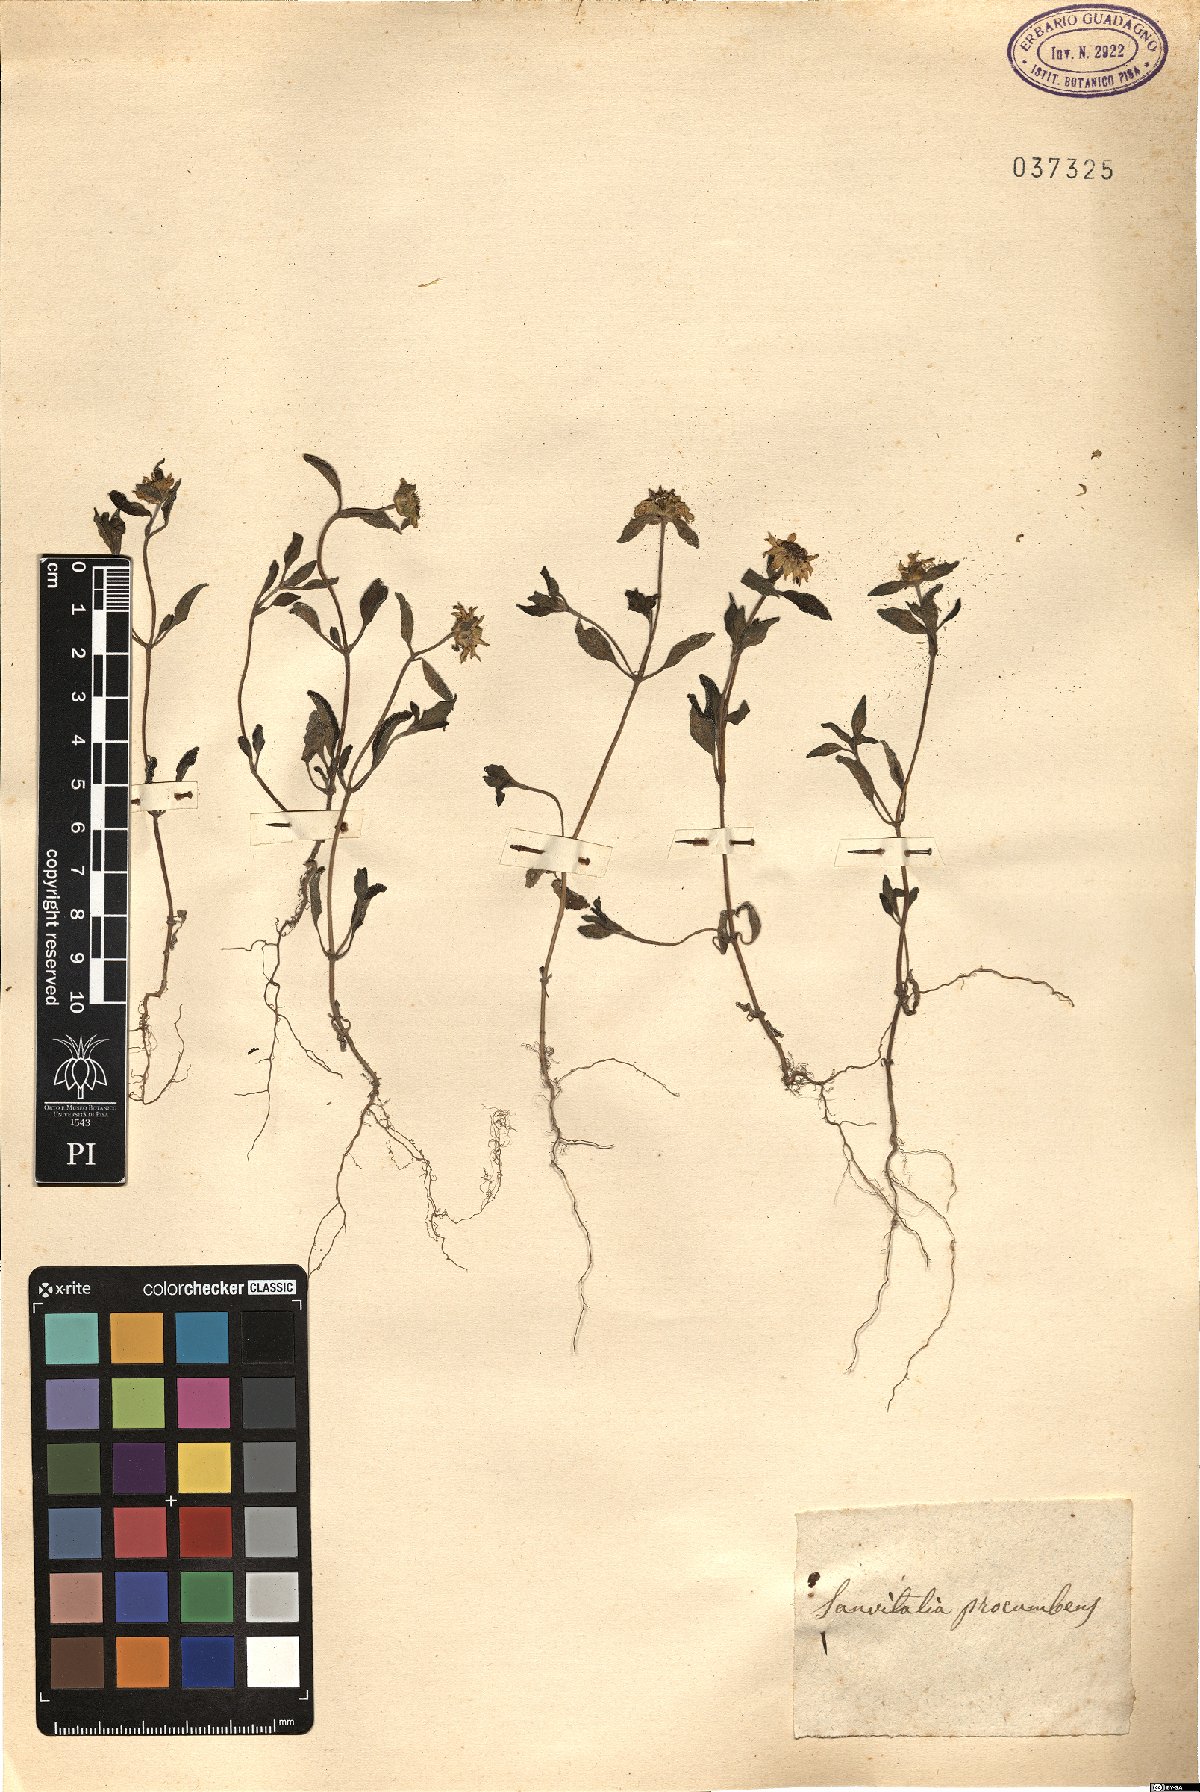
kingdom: Plantae
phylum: Tracheophyta
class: Magnoliopsida
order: Asterales
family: Asteraceae
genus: Sanvitalia
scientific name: Sanvitalia procumbens
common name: Mexican creeping zinnia
